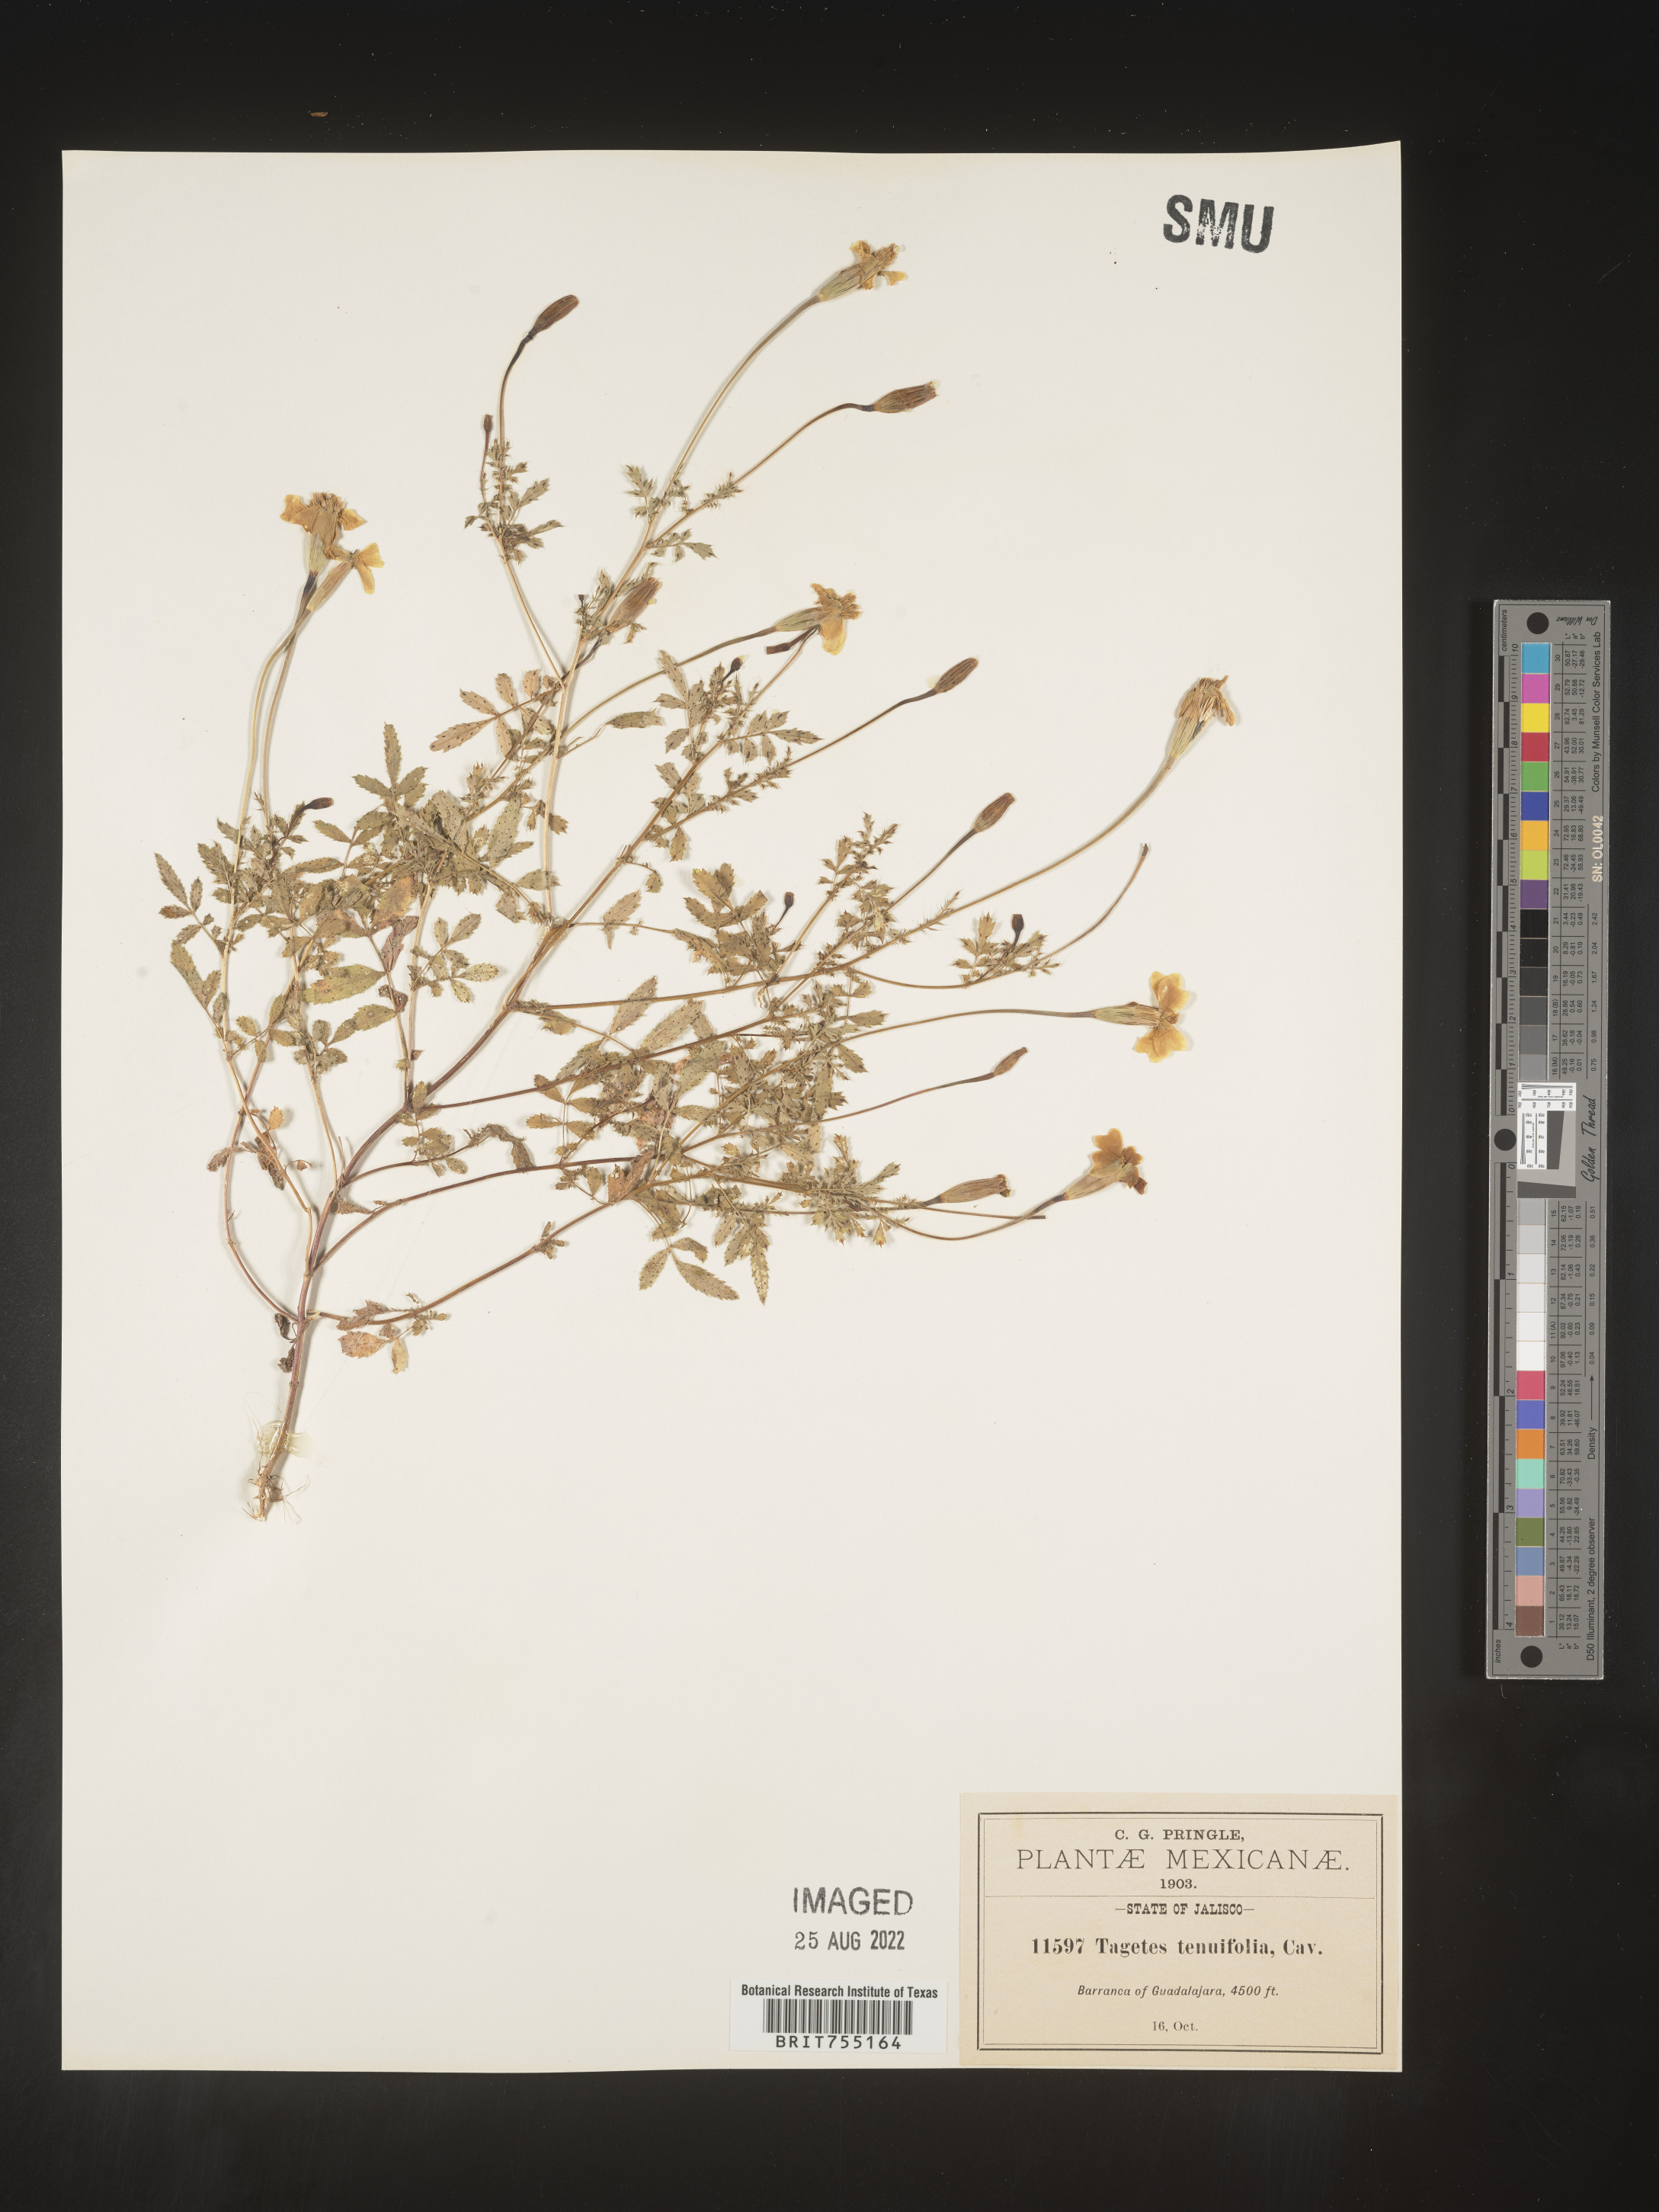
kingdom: Plantae
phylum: Tracheophyta
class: Magnoliopsida
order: Asterales
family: Asteraceae
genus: Tagetes
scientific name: Tagetes
